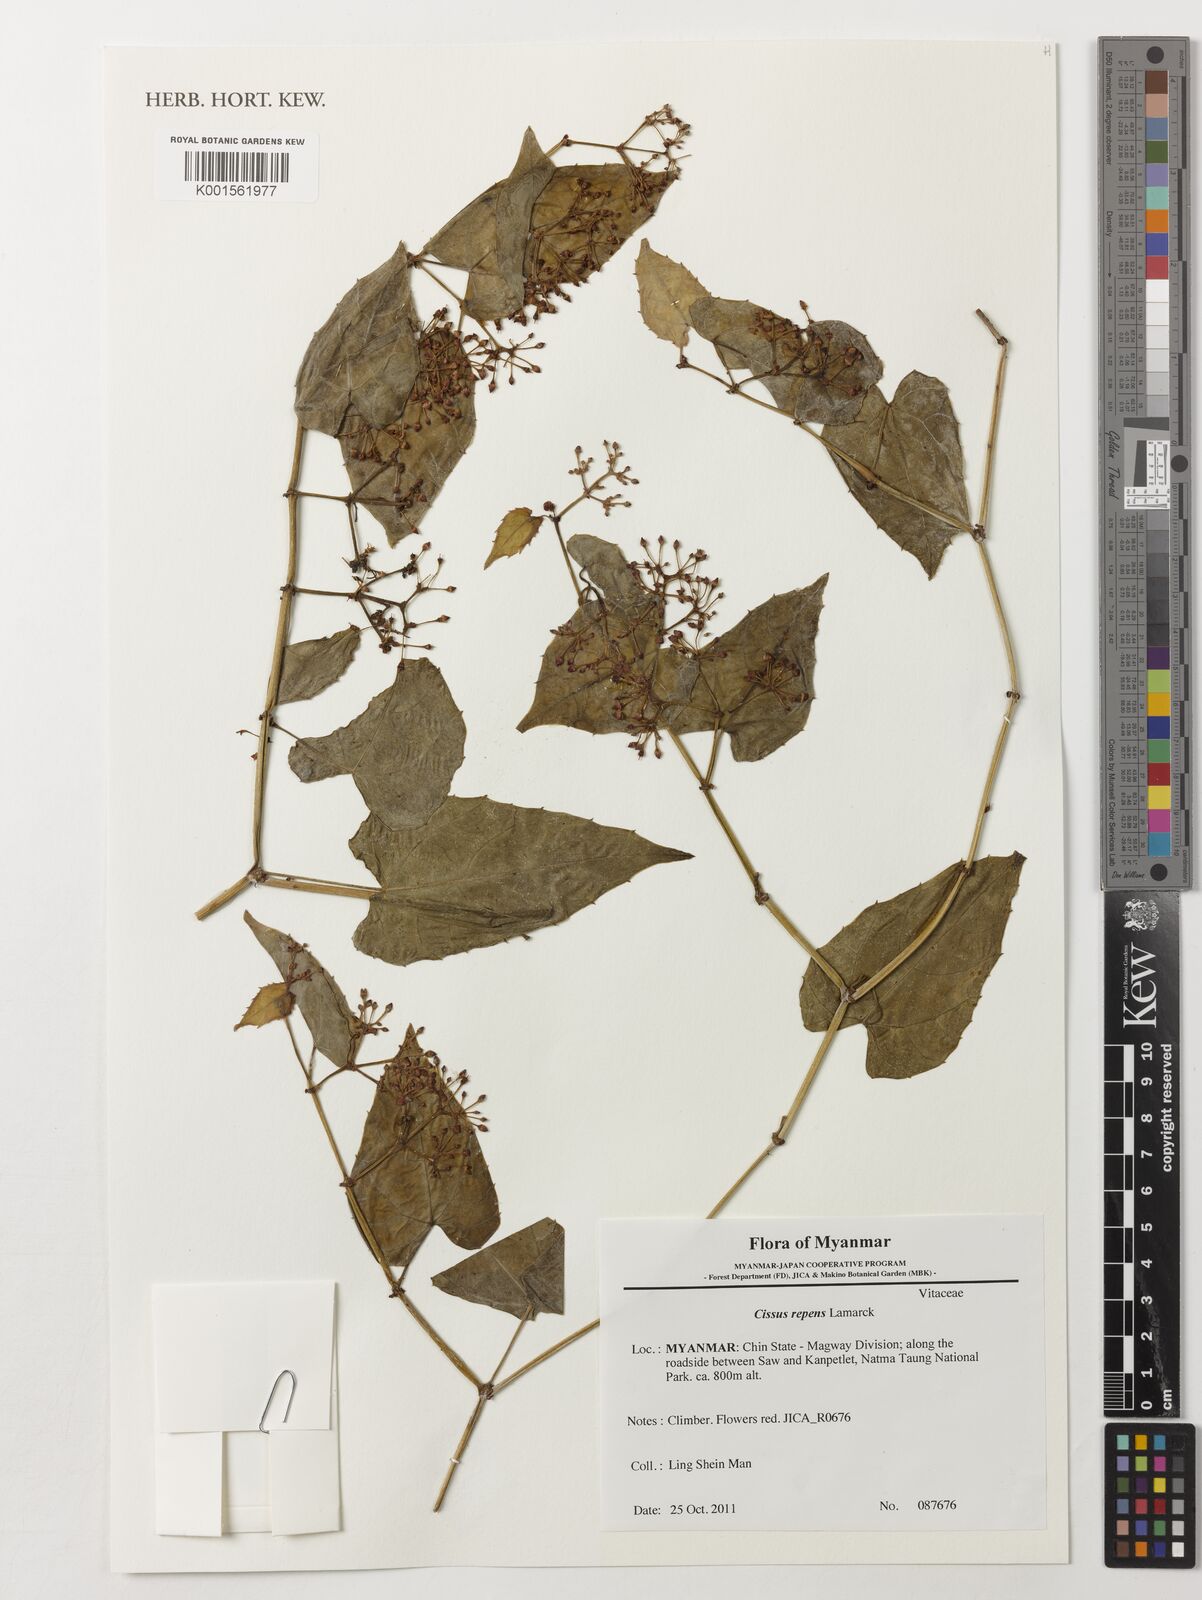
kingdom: Plantae
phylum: Tracheophyta
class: Magnoliopsida
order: Vitales
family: Vitaceae
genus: Cissus
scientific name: Cissus repens
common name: Cissus
